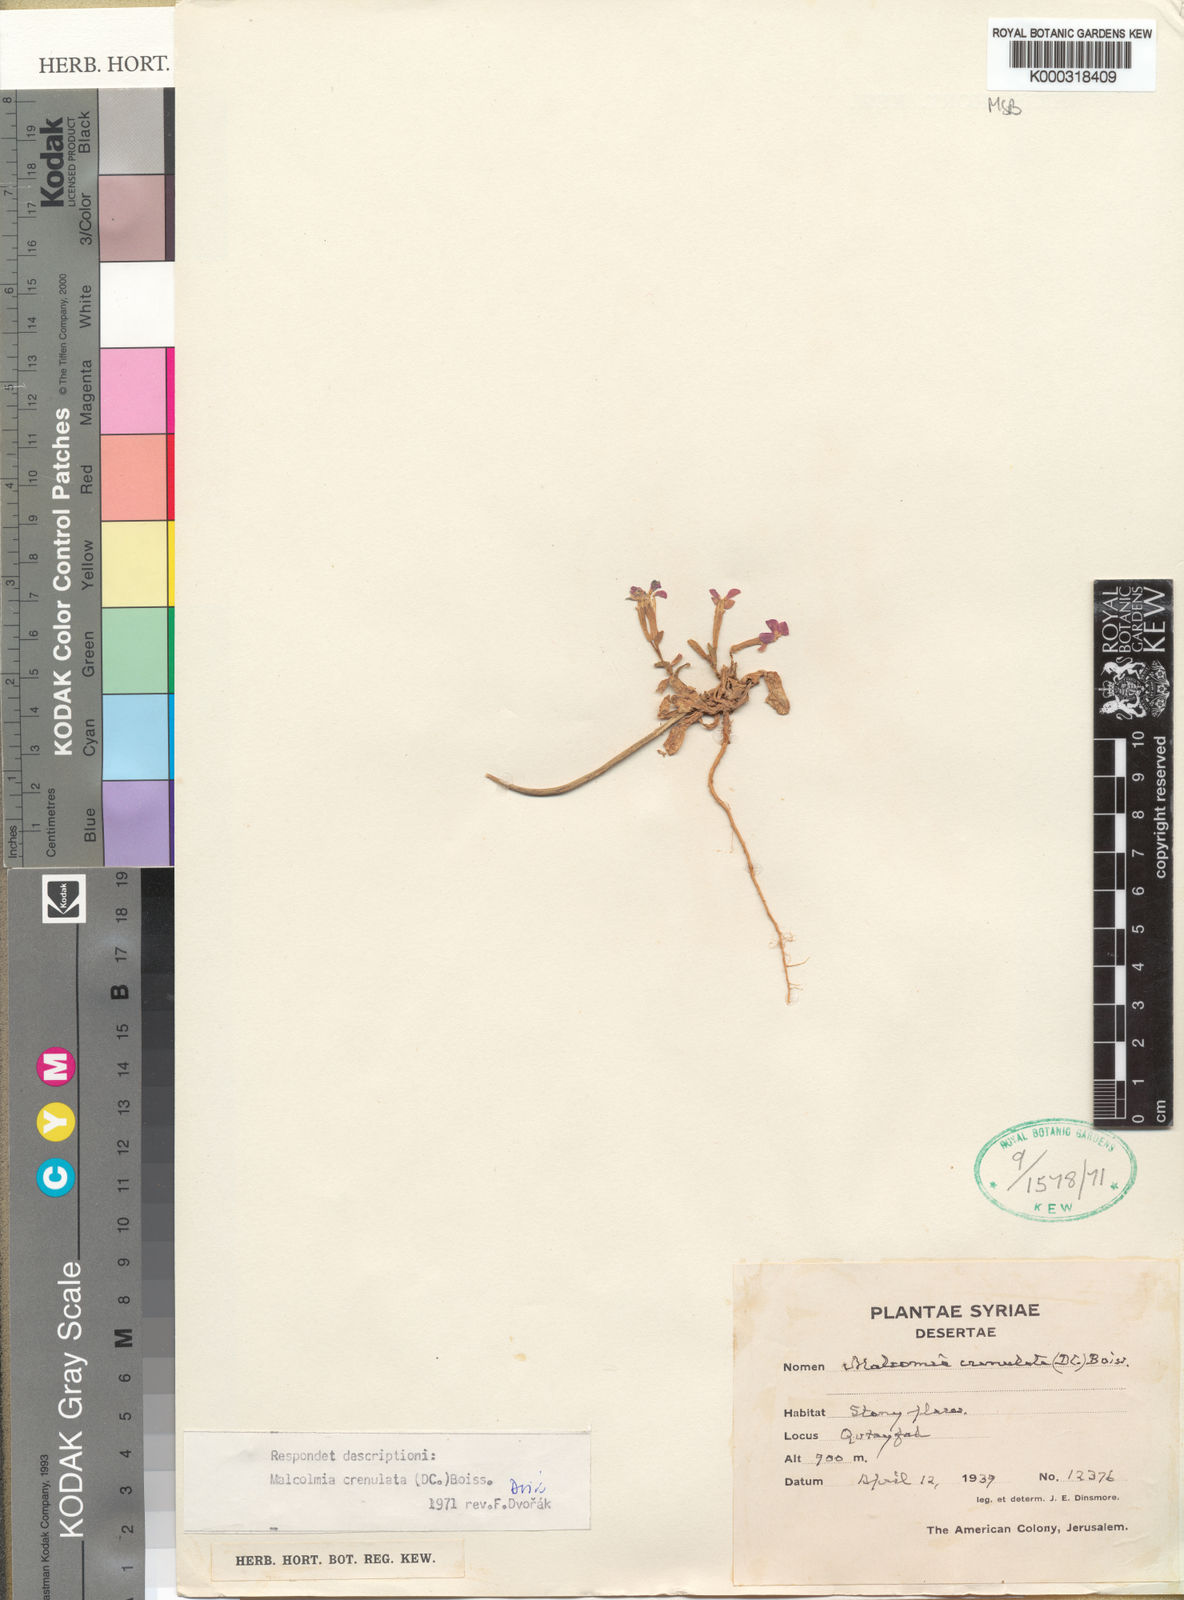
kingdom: Plantae
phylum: Tracheophyta
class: Magnoliopsida
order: Brassicales
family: Brassicaceae
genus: Zuvanda
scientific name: Zuvanda crenulata
